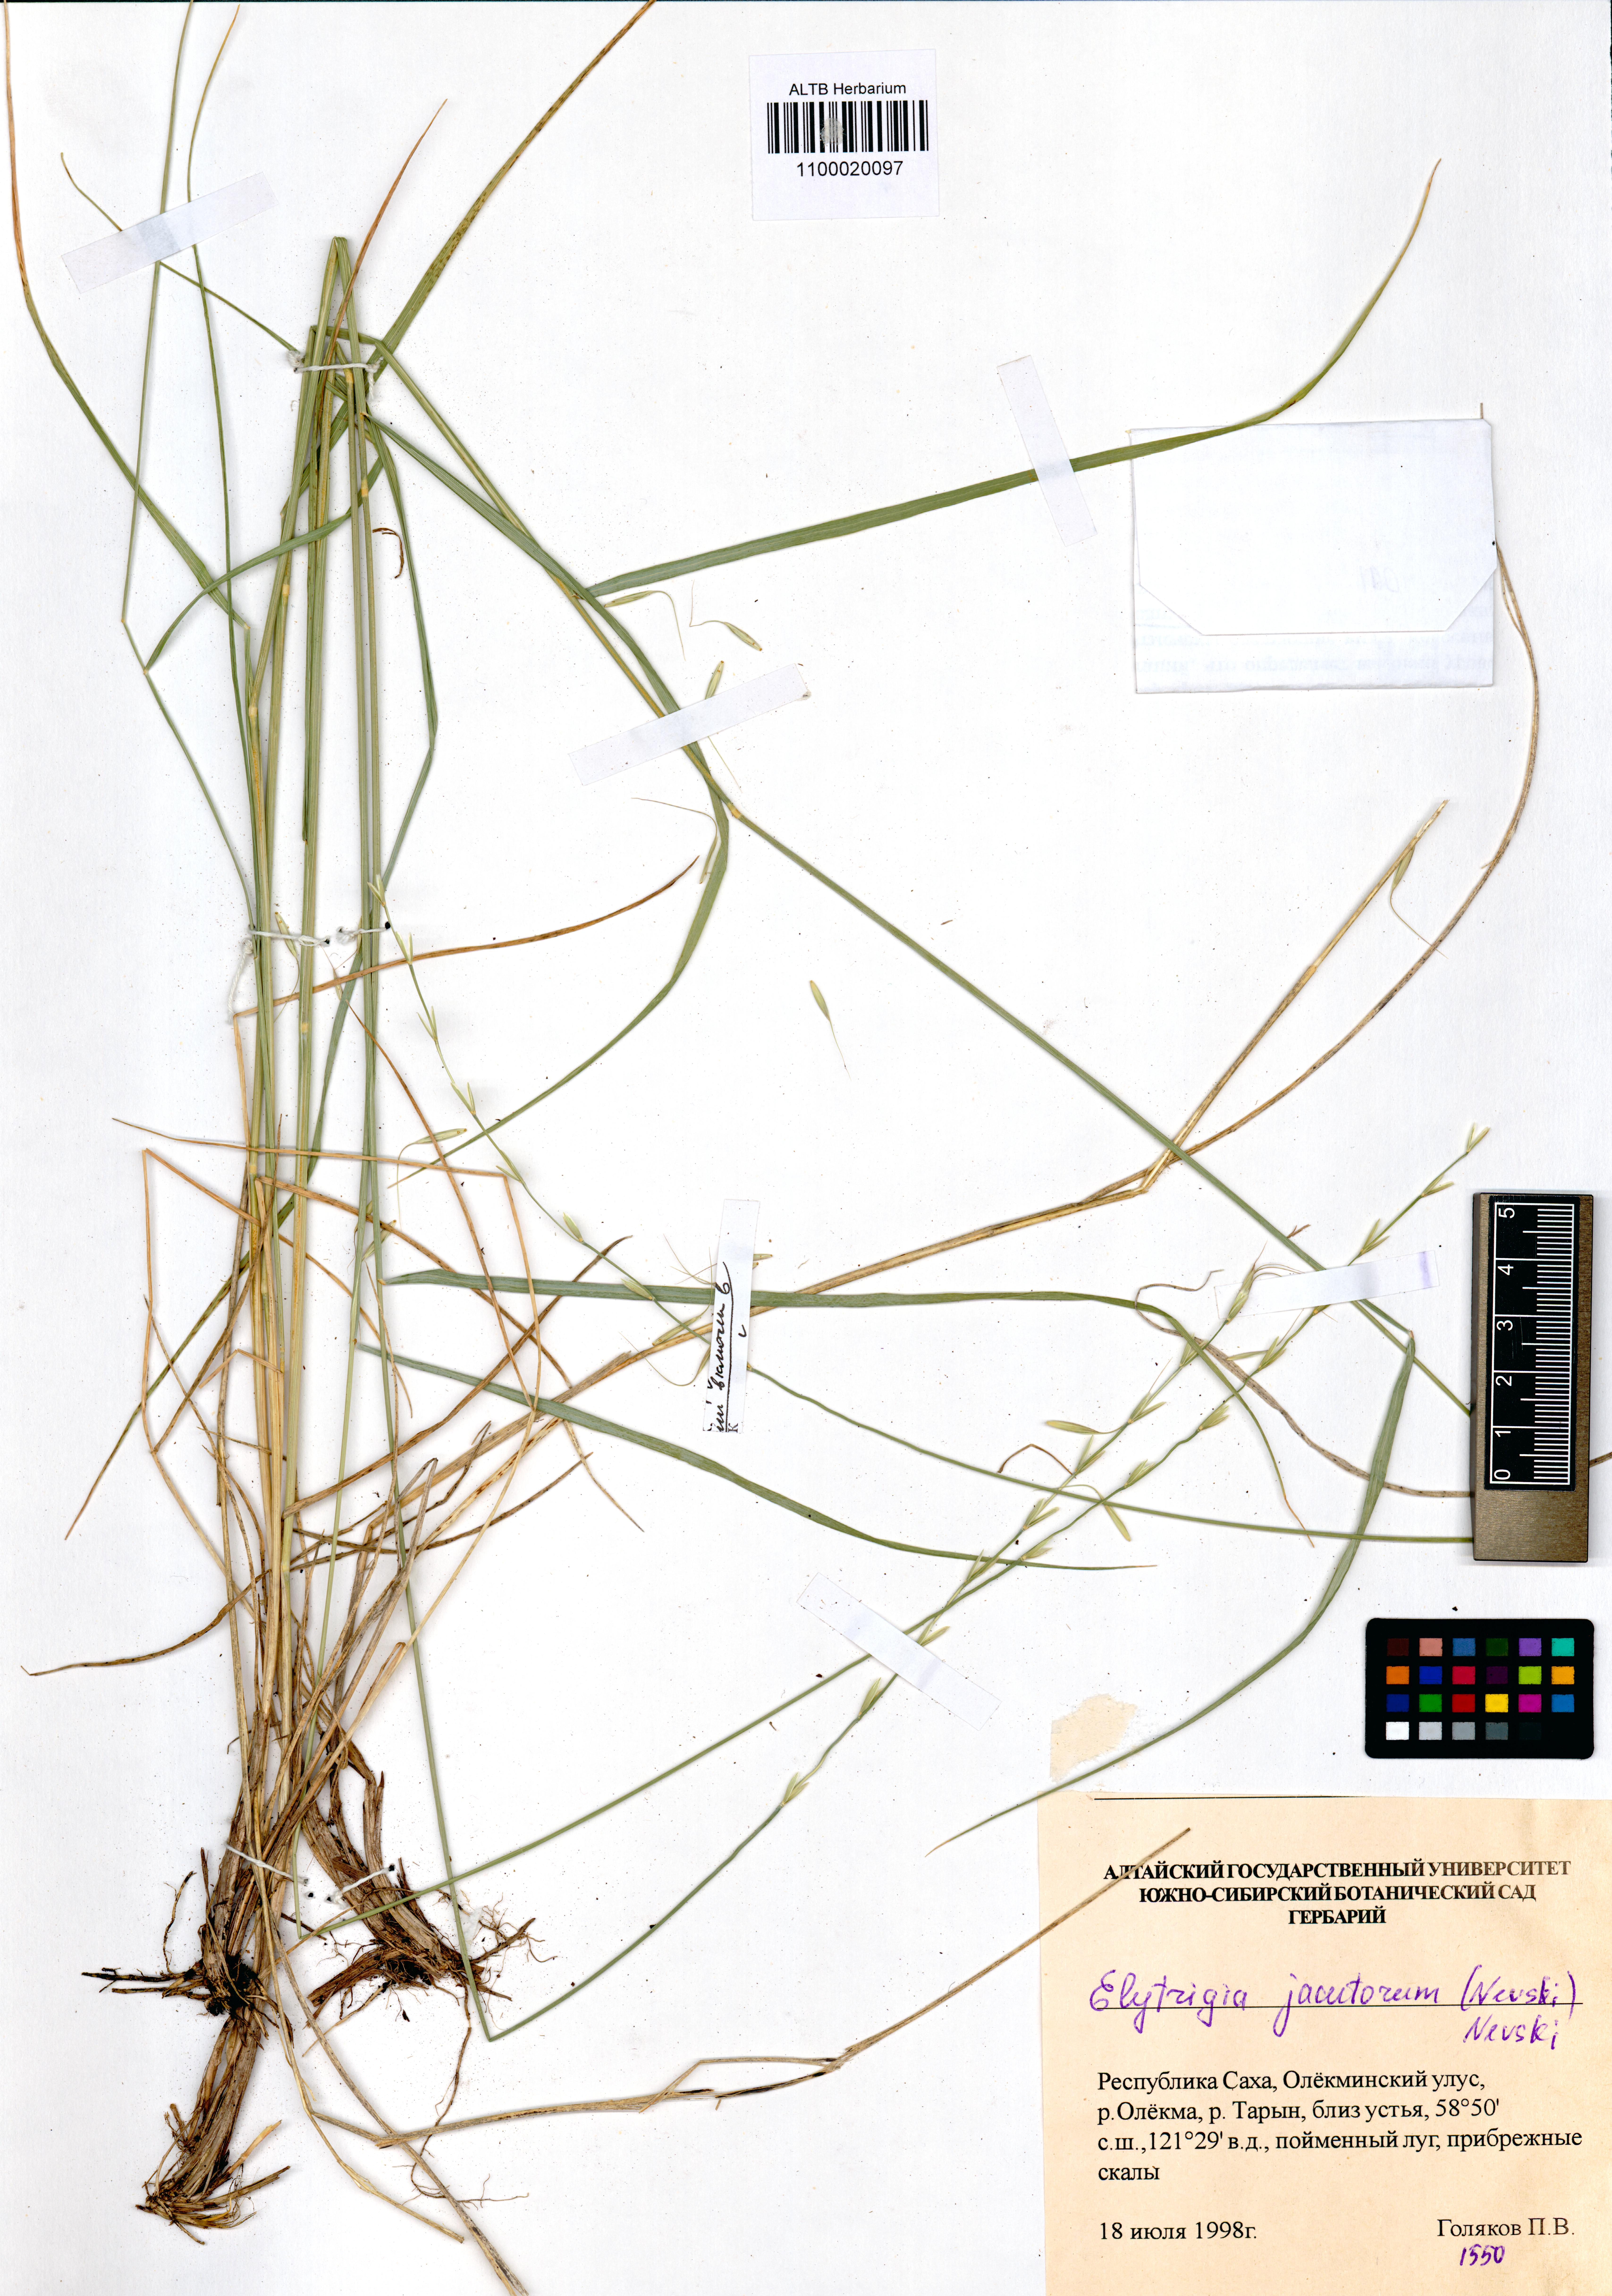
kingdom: Plantae
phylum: Tracheophyta
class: Liliopsida
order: Poales
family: Poaceae
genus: Pseudoroegneria
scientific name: Pseudoroegneria reflexiaristata
